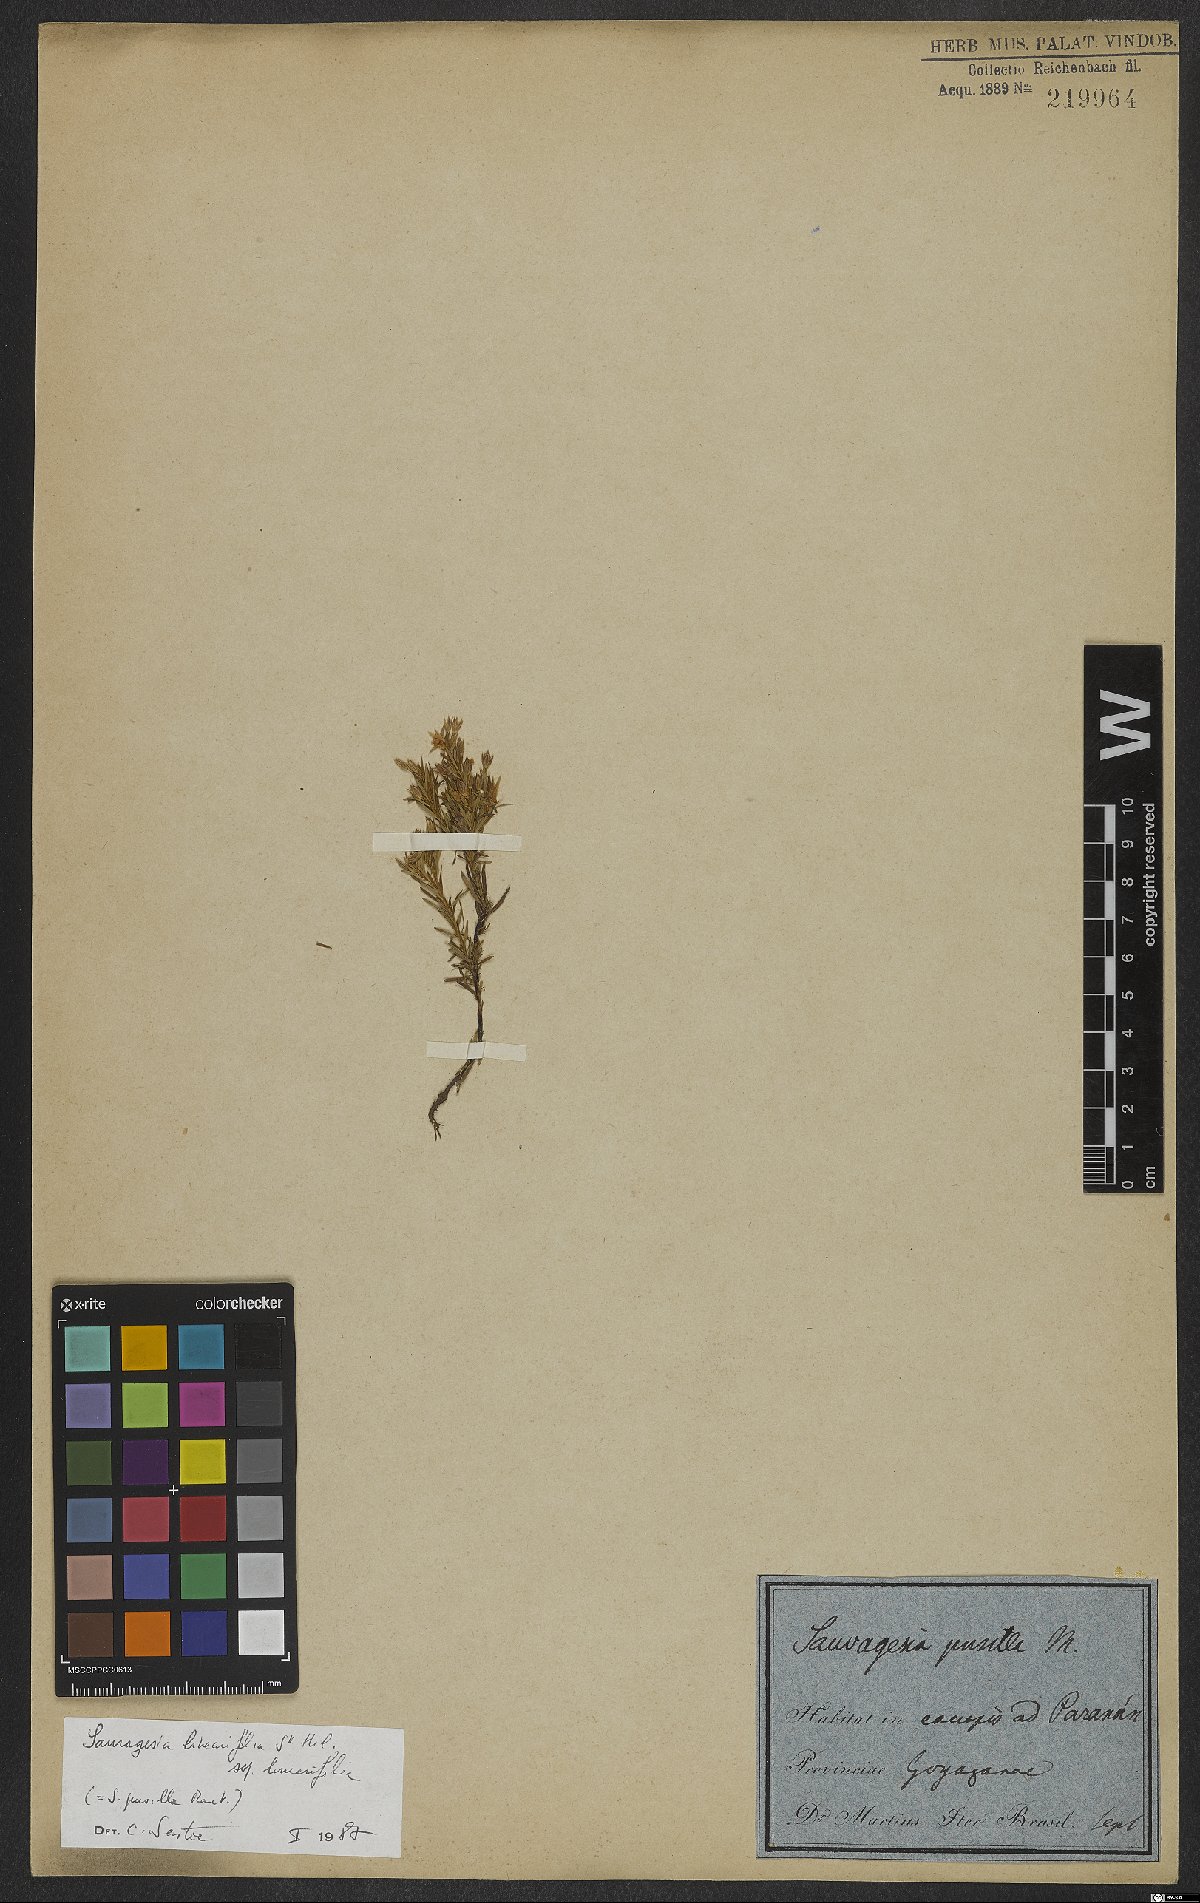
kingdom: Plantae
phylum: Tracheophyta
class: Magnoliopsida
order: Malpighiales
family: Ochnaceae
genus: Sauvagesia
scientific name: Sauvagesia linearifolia
